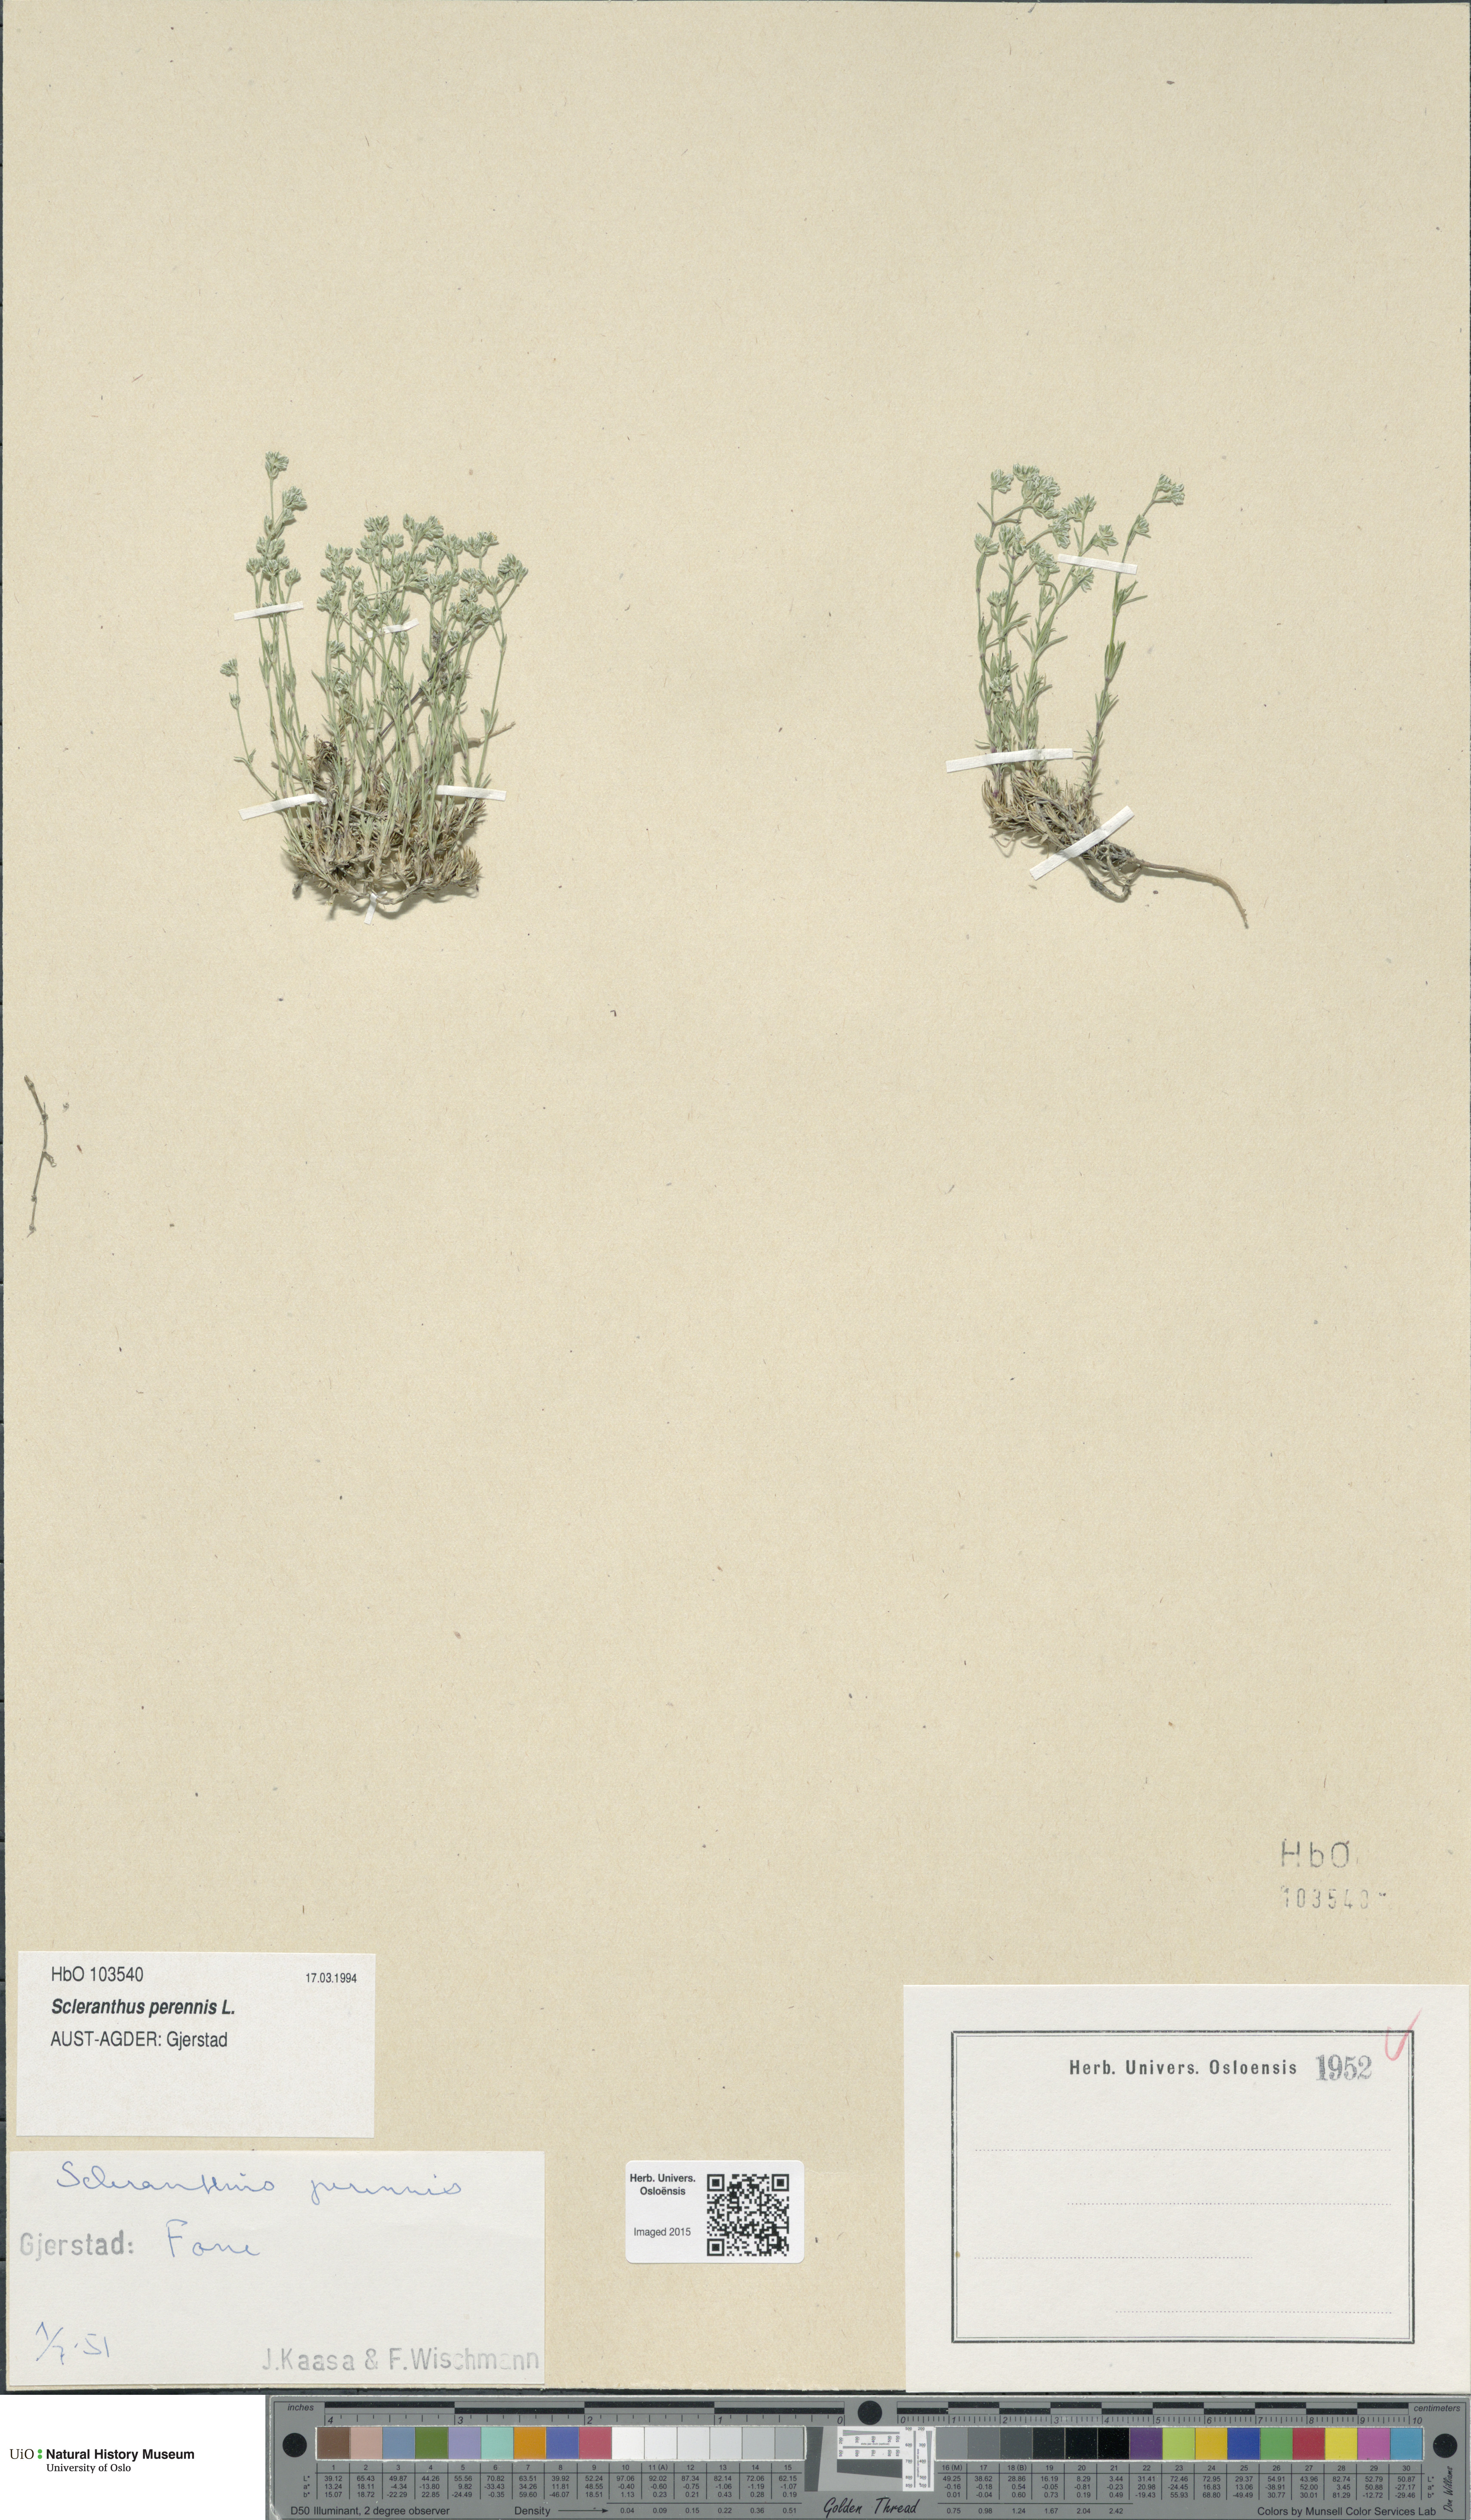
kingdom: Plantae
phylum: Tracheophyta
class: Magnoliopsida
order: Caryophyllales
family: Caryophyllaceae
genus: Scleranthus
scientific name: Scleranthus perennis
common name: Perennial knawel
